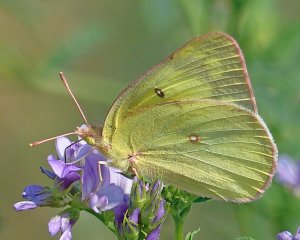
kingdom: Animalia
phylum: Arthropoda
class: Insecta
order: Lepidoptera
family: Pieridae
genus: Colias
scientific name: Colias philodice
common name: Clouded Sulphur
